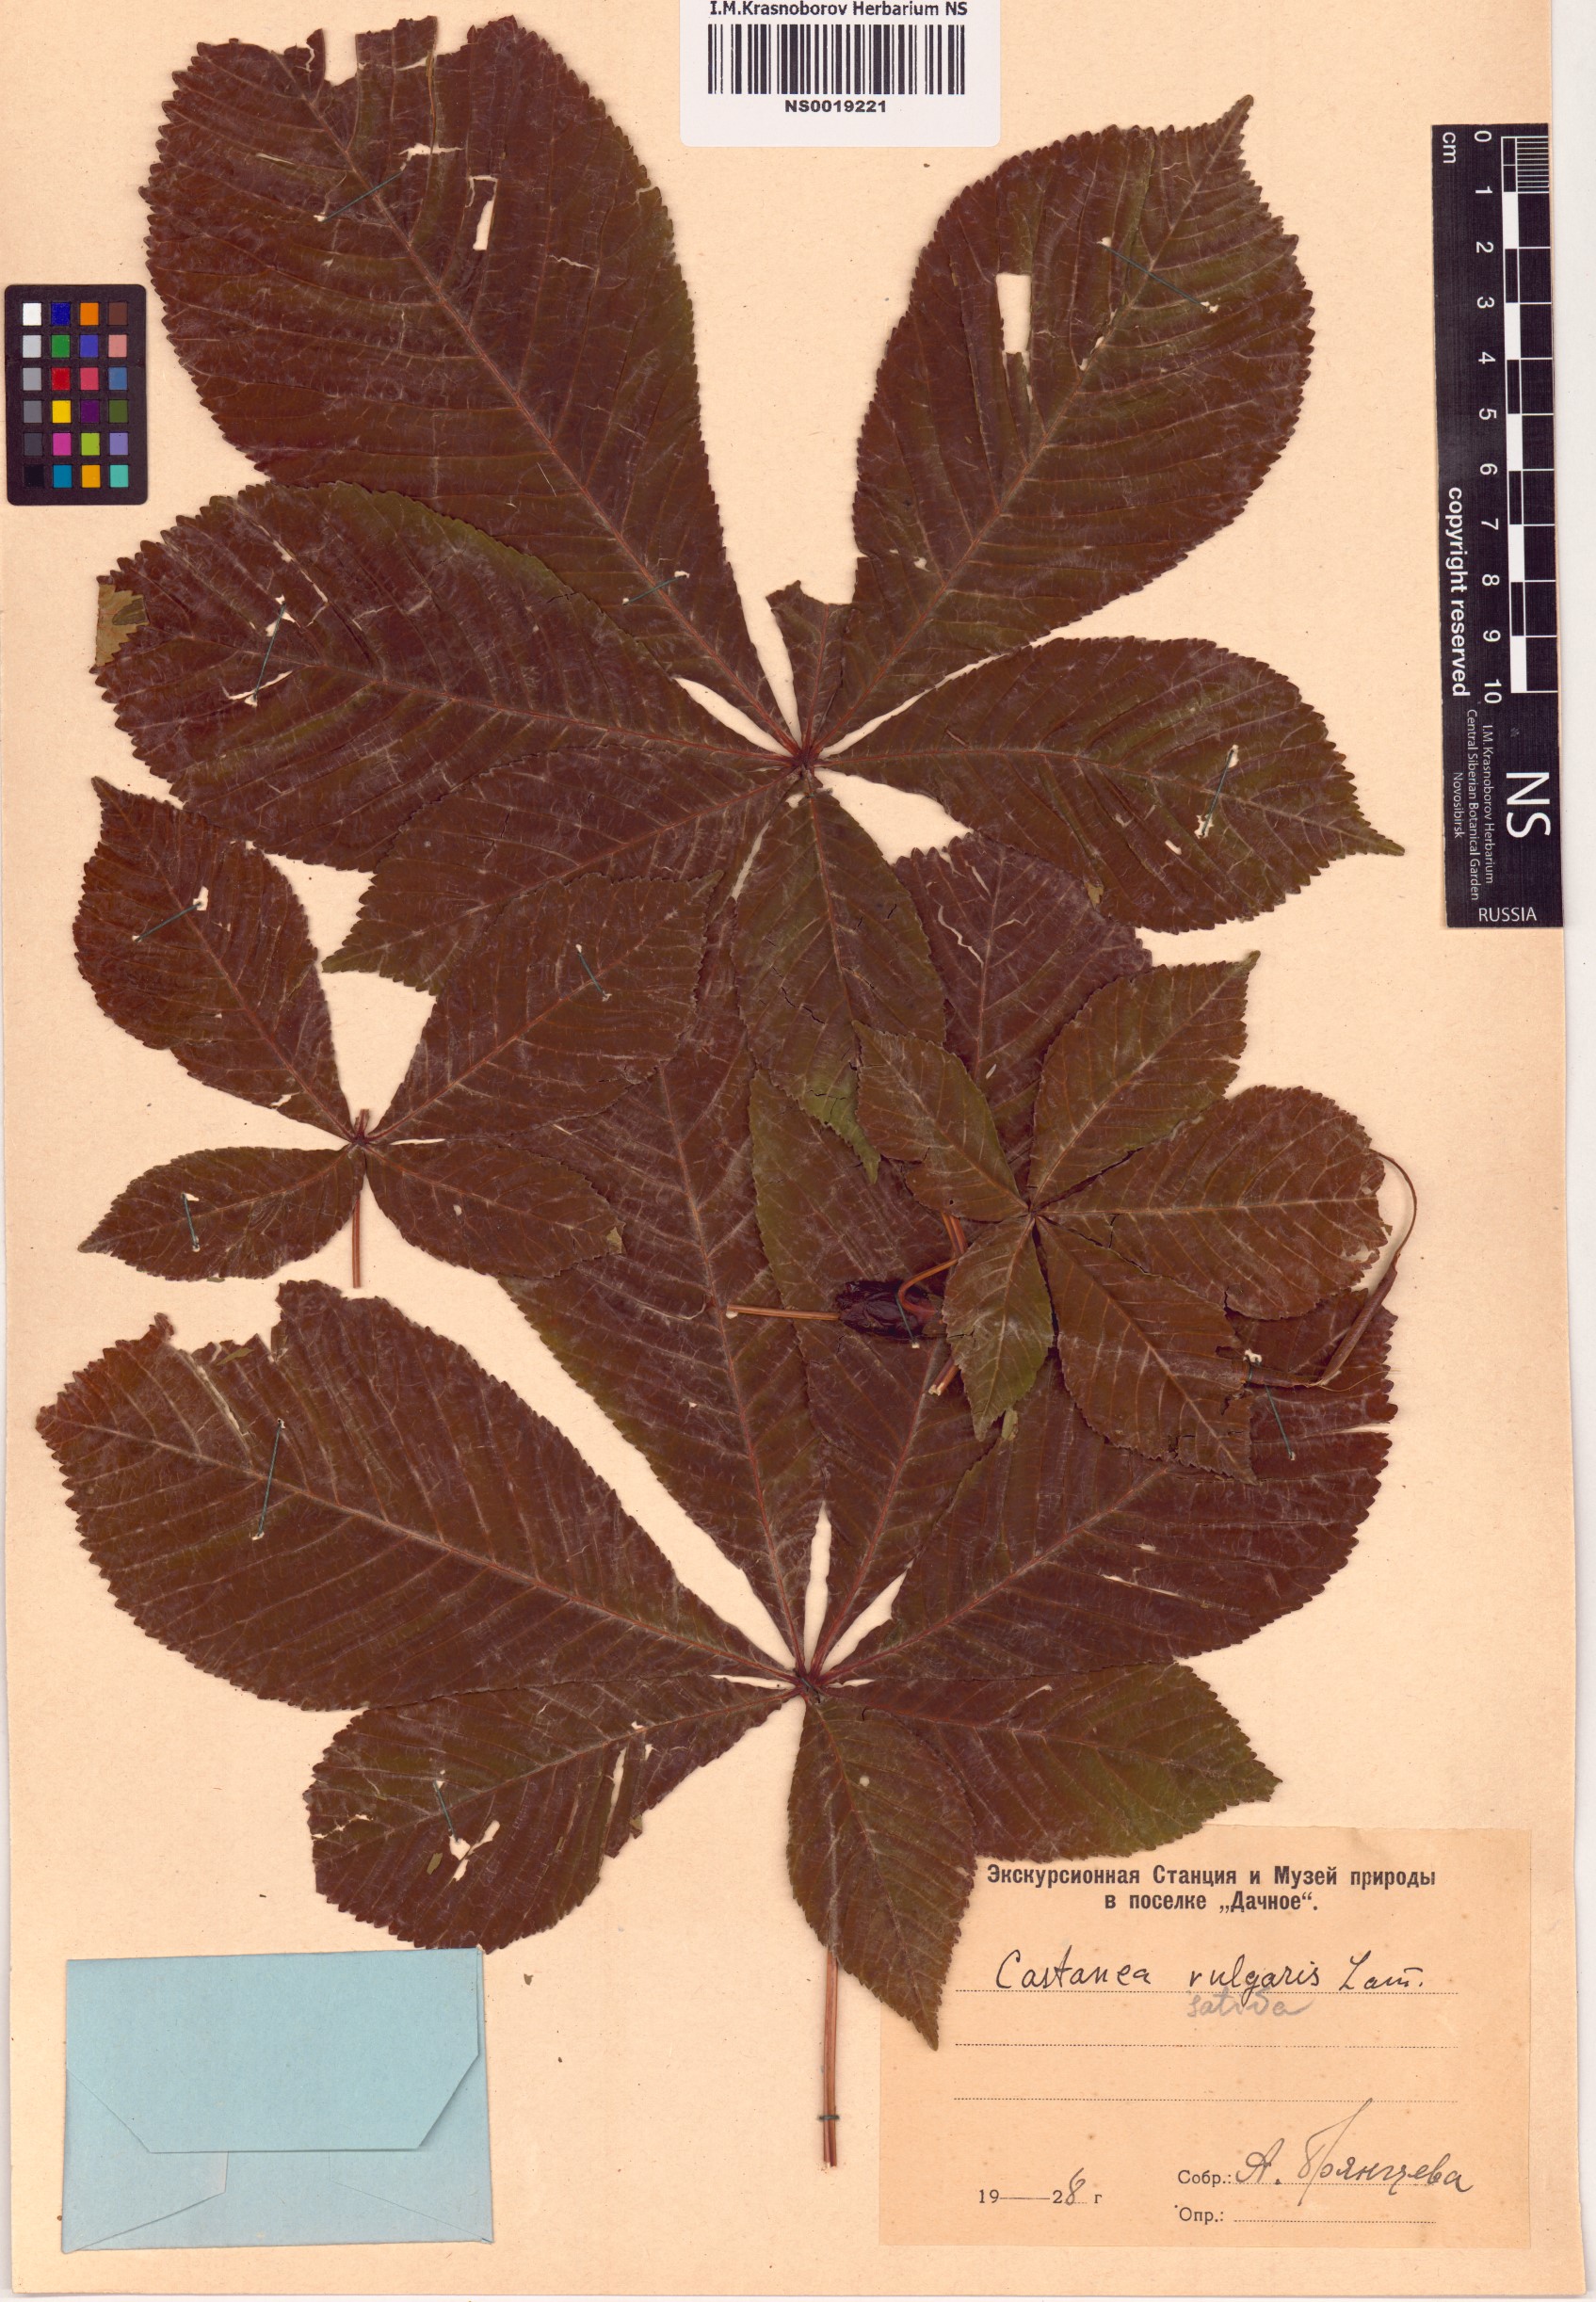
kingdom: Plantae
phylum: Tracheophyta
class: Magnoliopsida
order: Fagales
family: Fagaceae
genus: Castanea
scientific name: Castanea sativa
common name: Sweet chestnut
